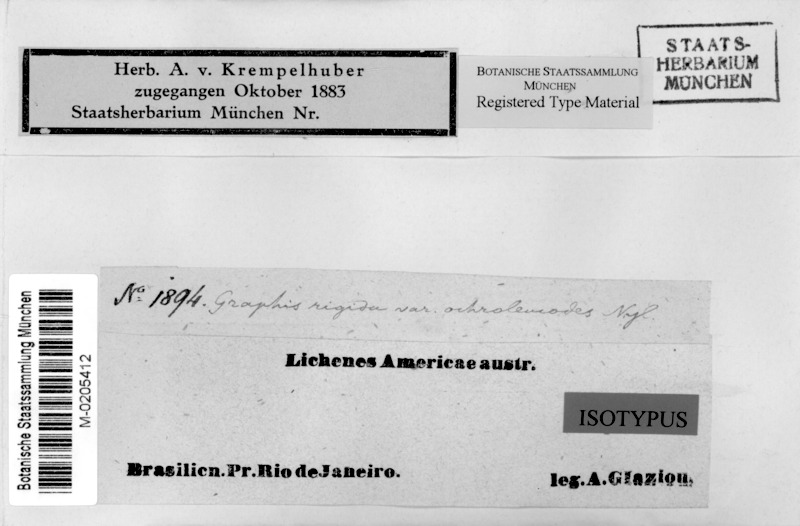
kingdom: Fungi
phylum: Ascomycota
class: Lecanoromycetes
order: Ostropales
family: Graphidaceae
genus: Allographa
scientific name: Allographa acharii
